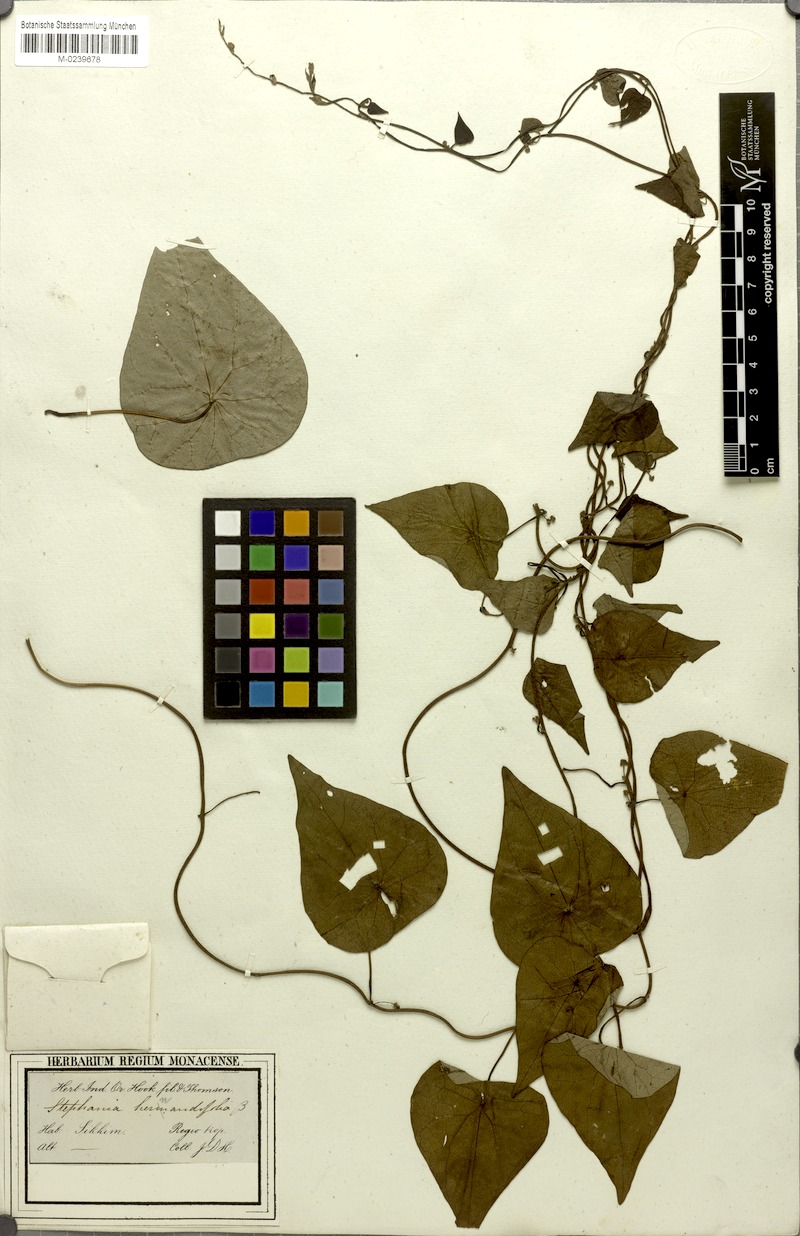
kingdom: Plantae
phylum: Tracheophyta
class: Magnoliopsida
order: Ranunculales
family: Menispermaceae
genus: Stephania
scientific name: Stephania japonica
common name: Snake vine
